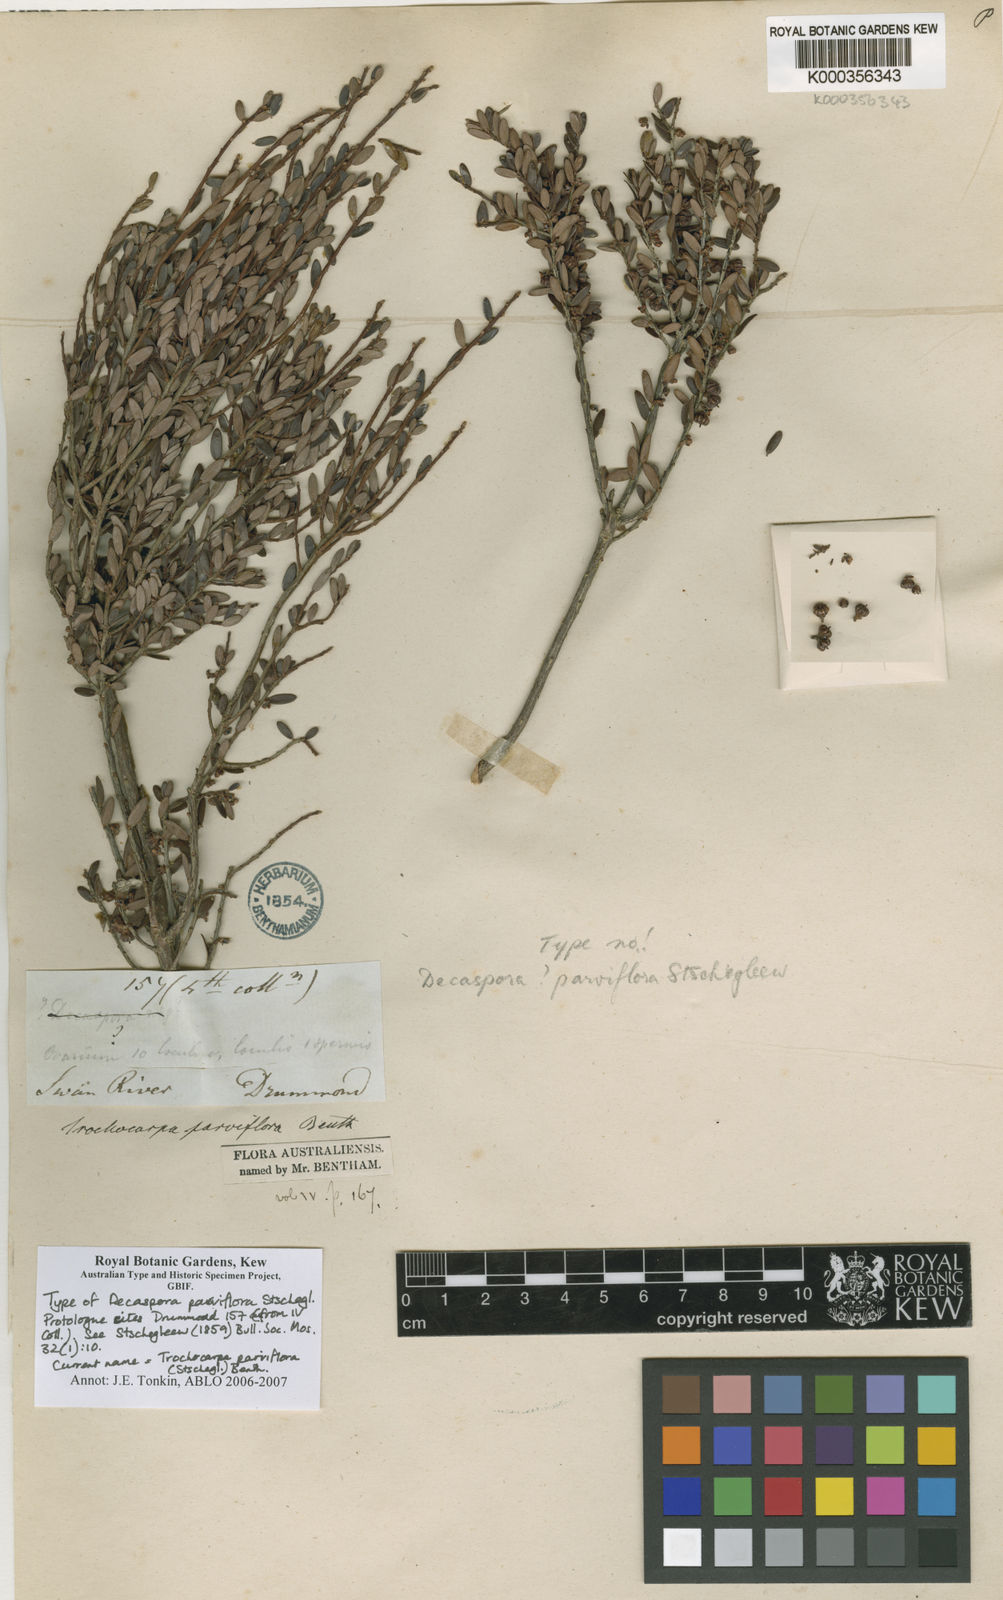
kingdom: Plantae
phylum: Tracheophyta
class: Magnoliopsida
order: Ericales
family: Ericaceae
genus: Acrotriche
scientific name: Acrotriche parviflora
